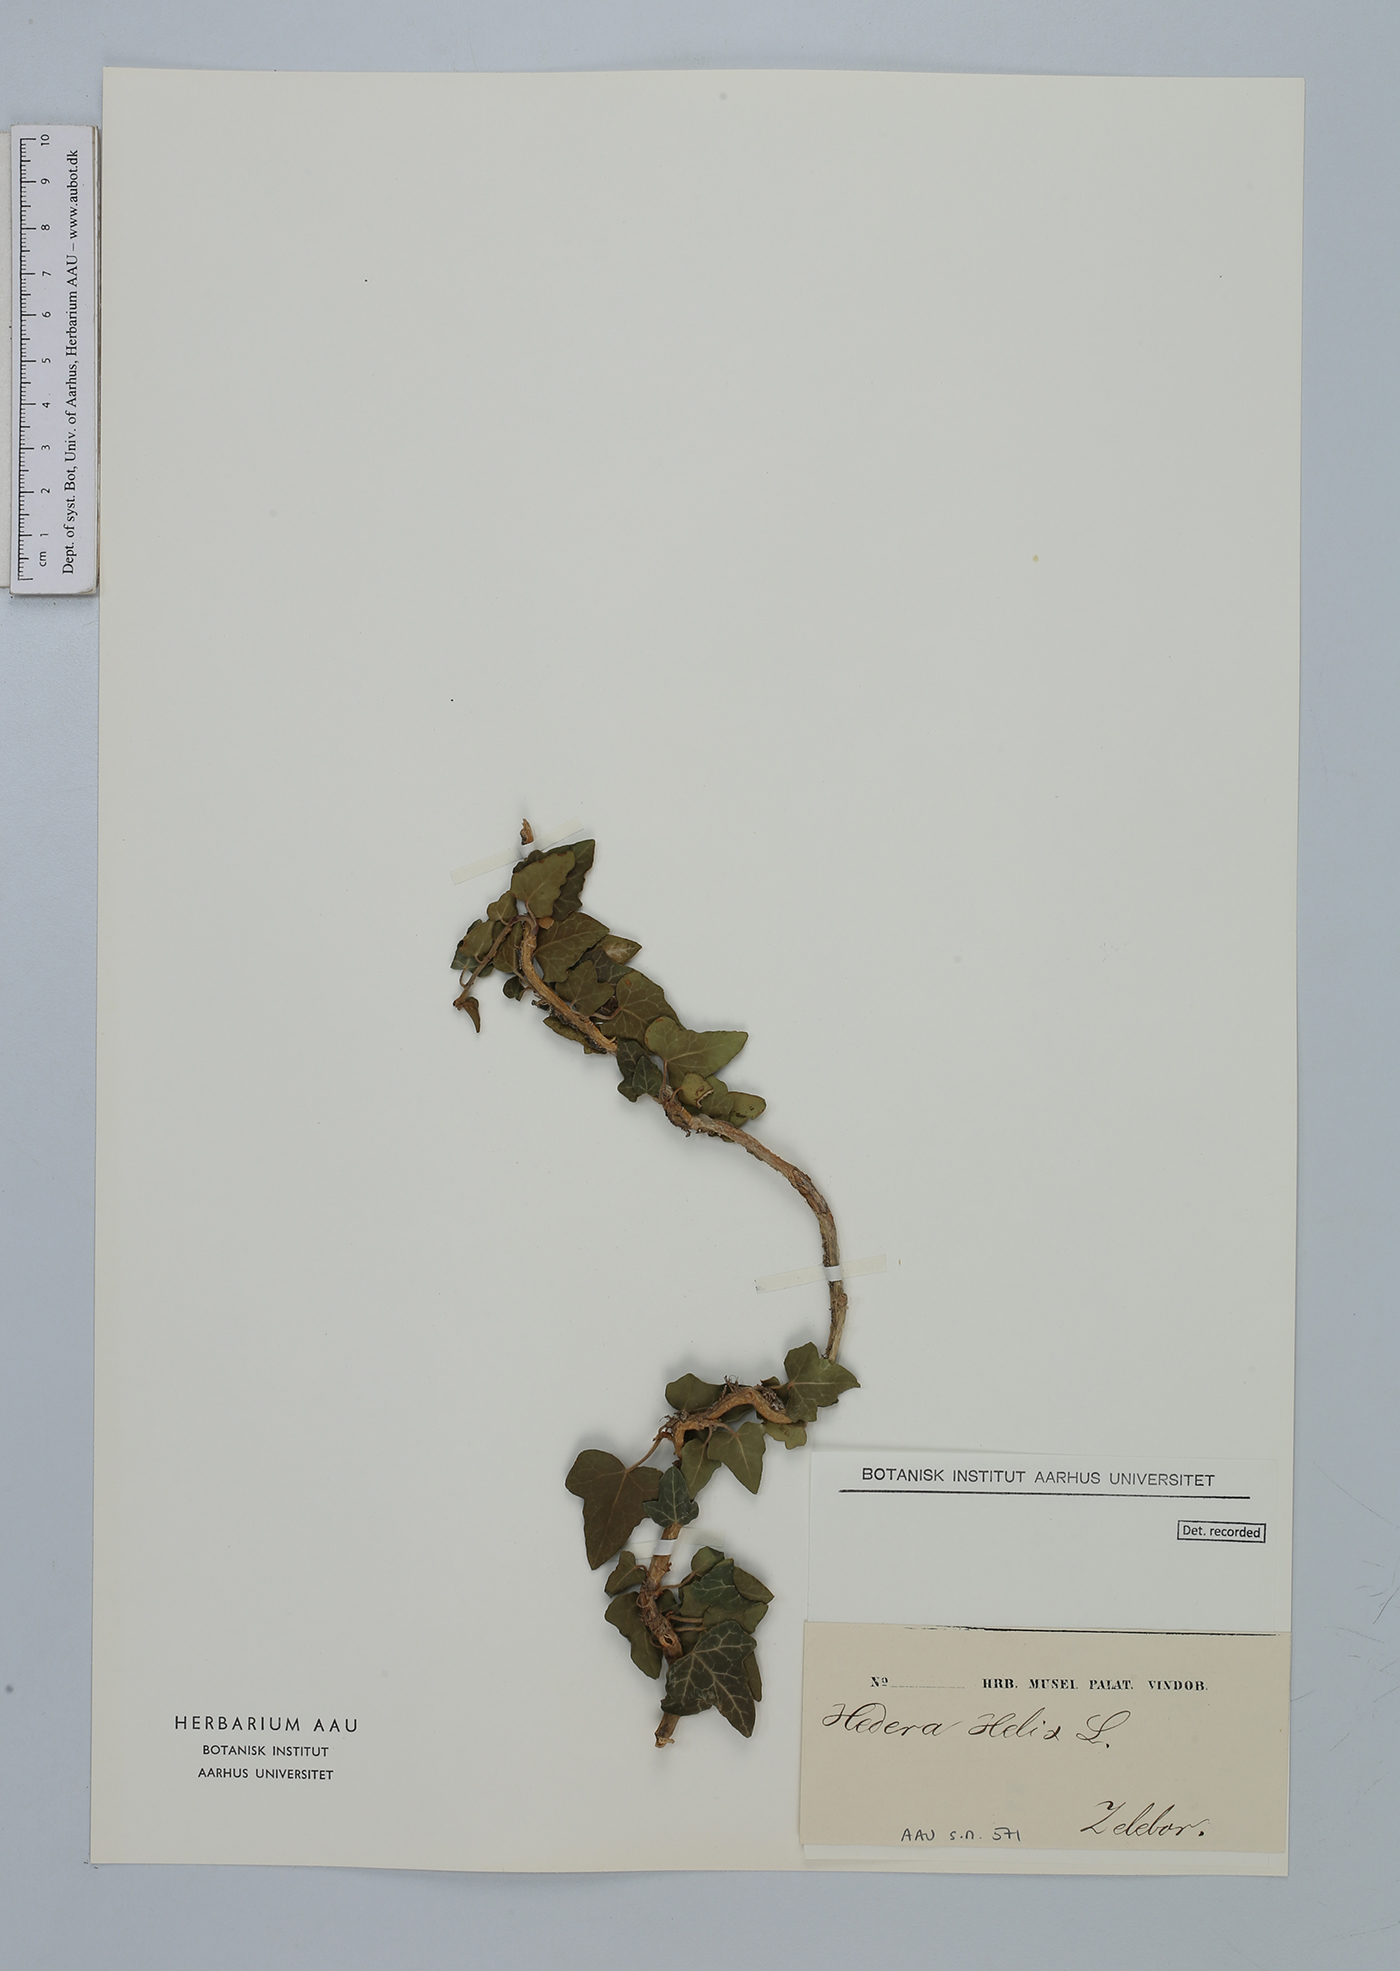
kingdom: Plantae
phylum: Tracheophyta
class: Magnoliopsida
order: Apiales
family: Araliaceae
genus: Hedera
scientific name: Hedera helix
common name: Ivy
